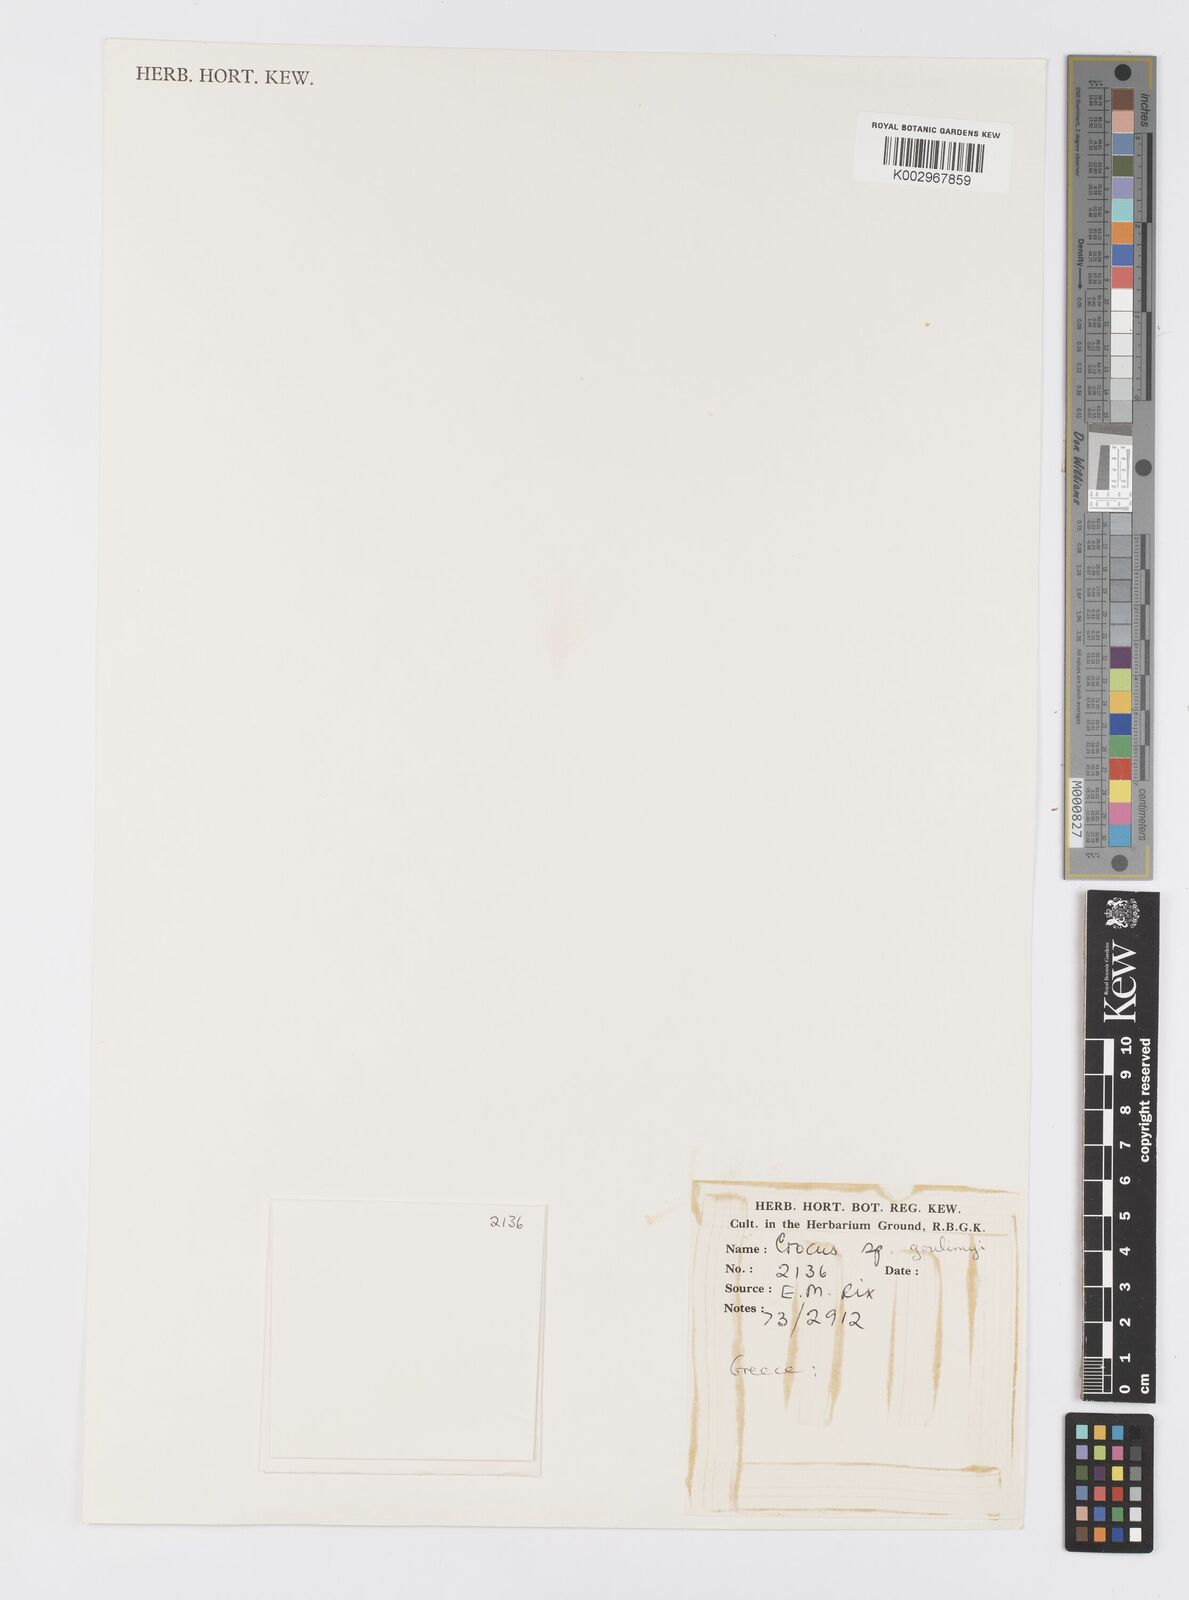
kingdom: Plantae
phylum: Tracheophyta
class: Liliopsida
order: Asparagales
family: Iridaceae
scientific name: Iridaceae
